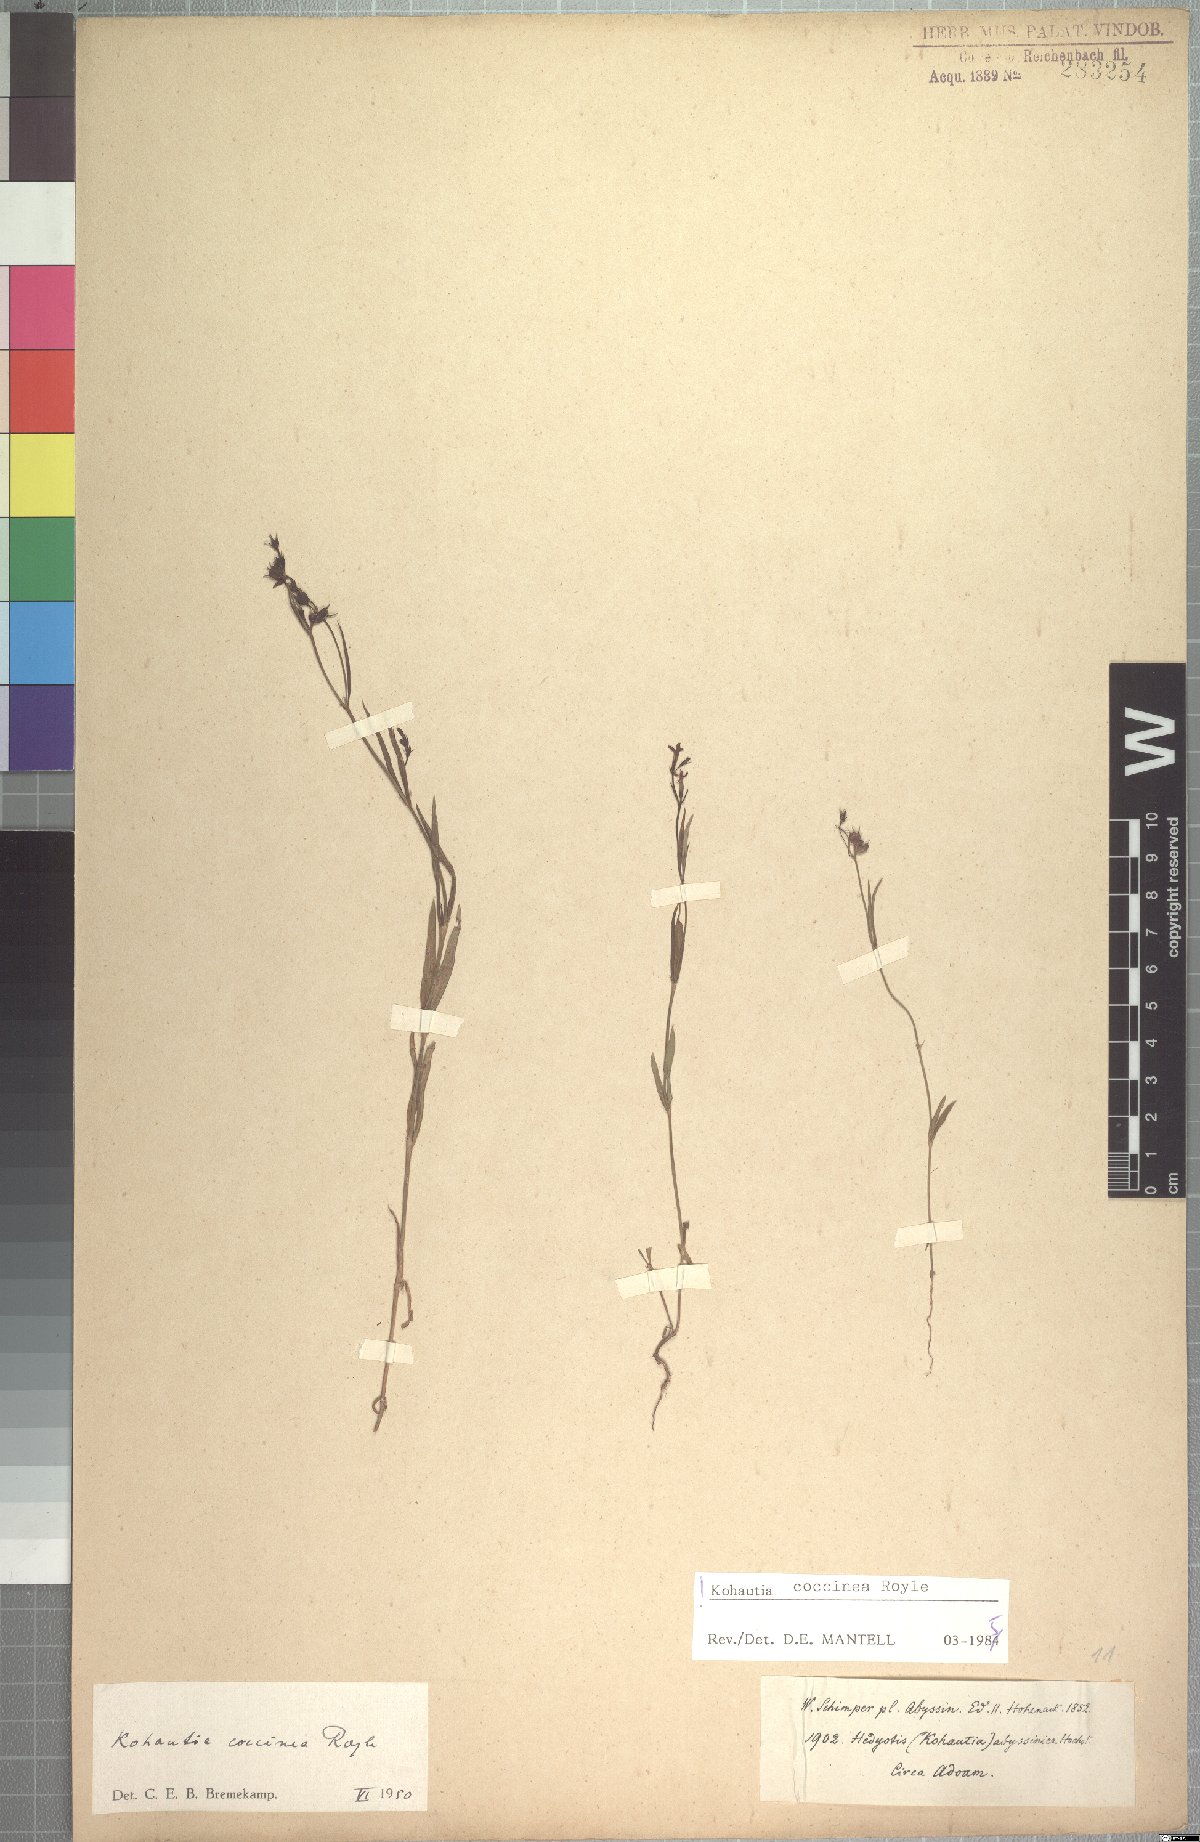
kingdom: Plantae
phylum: Tracheophyta
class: Magnoliopsida
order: Gentianales
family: Rubiaceae
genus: Kohautia
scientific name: Kohautia coccinea
